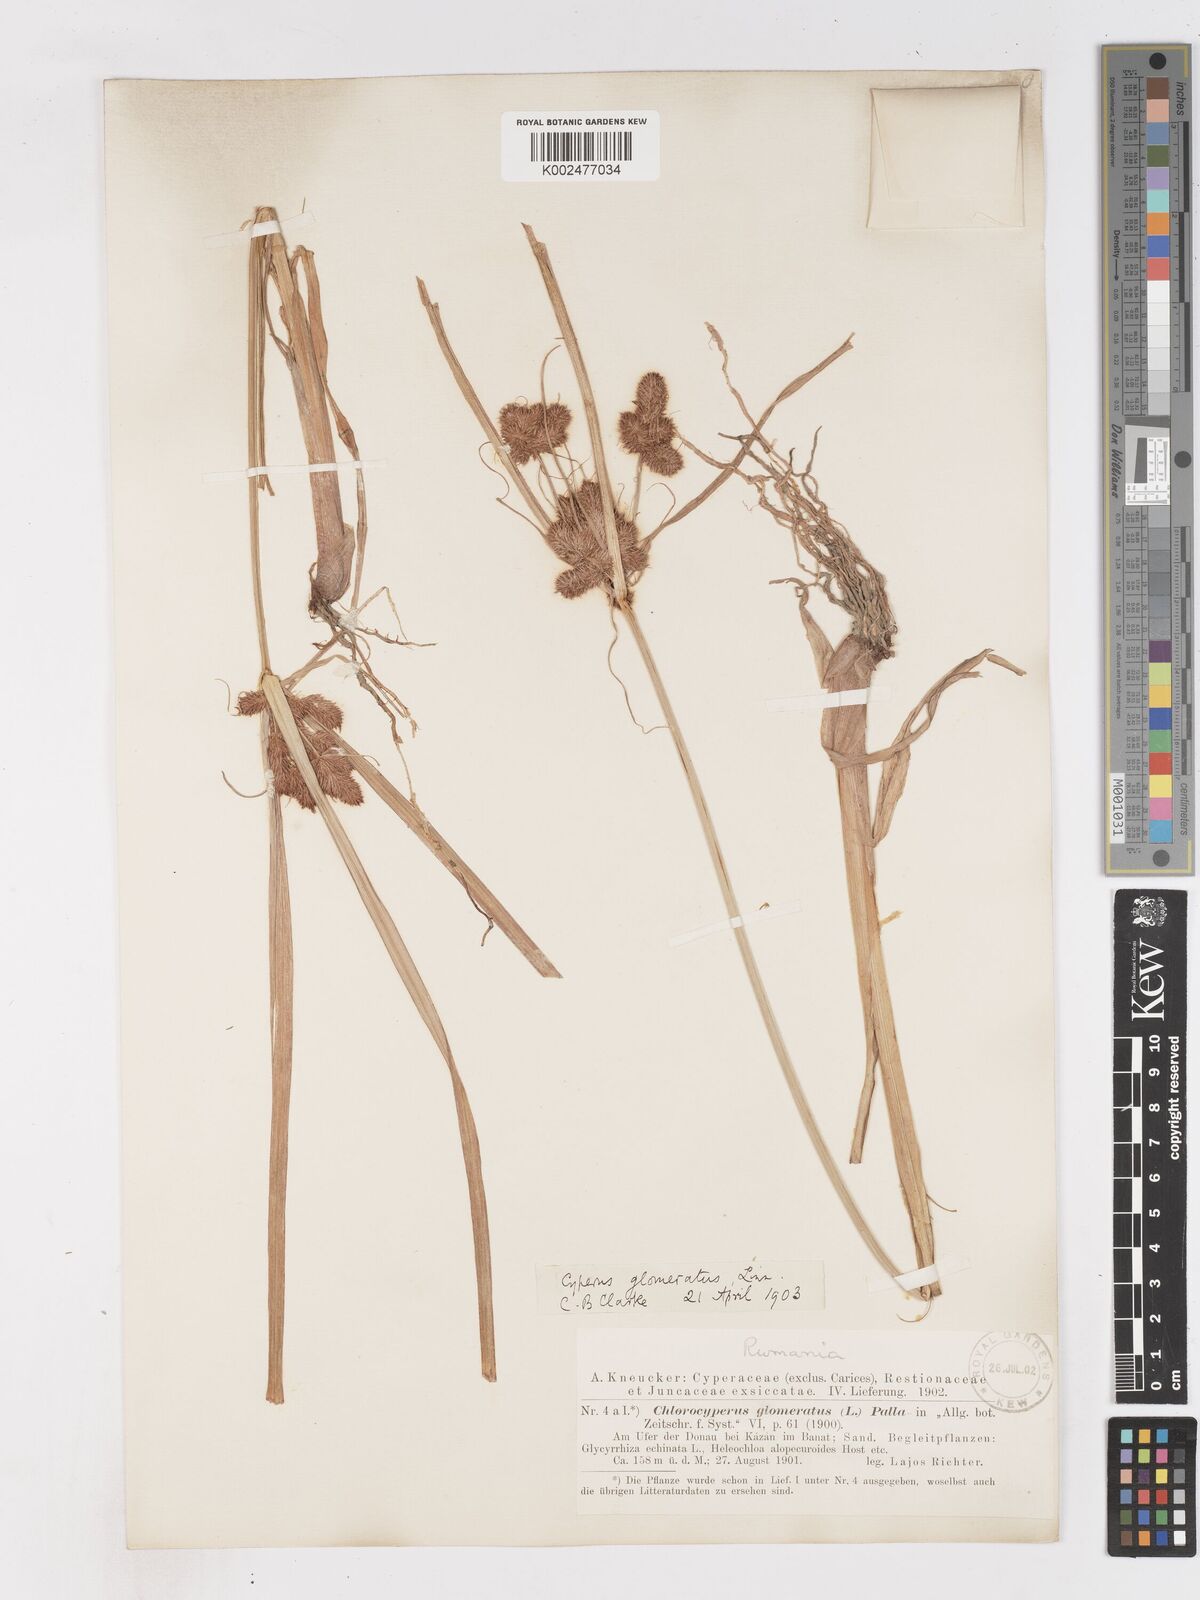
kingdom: Plantae
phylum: Tracheophyta
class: Liliopsida
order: Poales
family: Cyperaceae
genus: Cyperus
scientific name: Cyperus glomeratus
